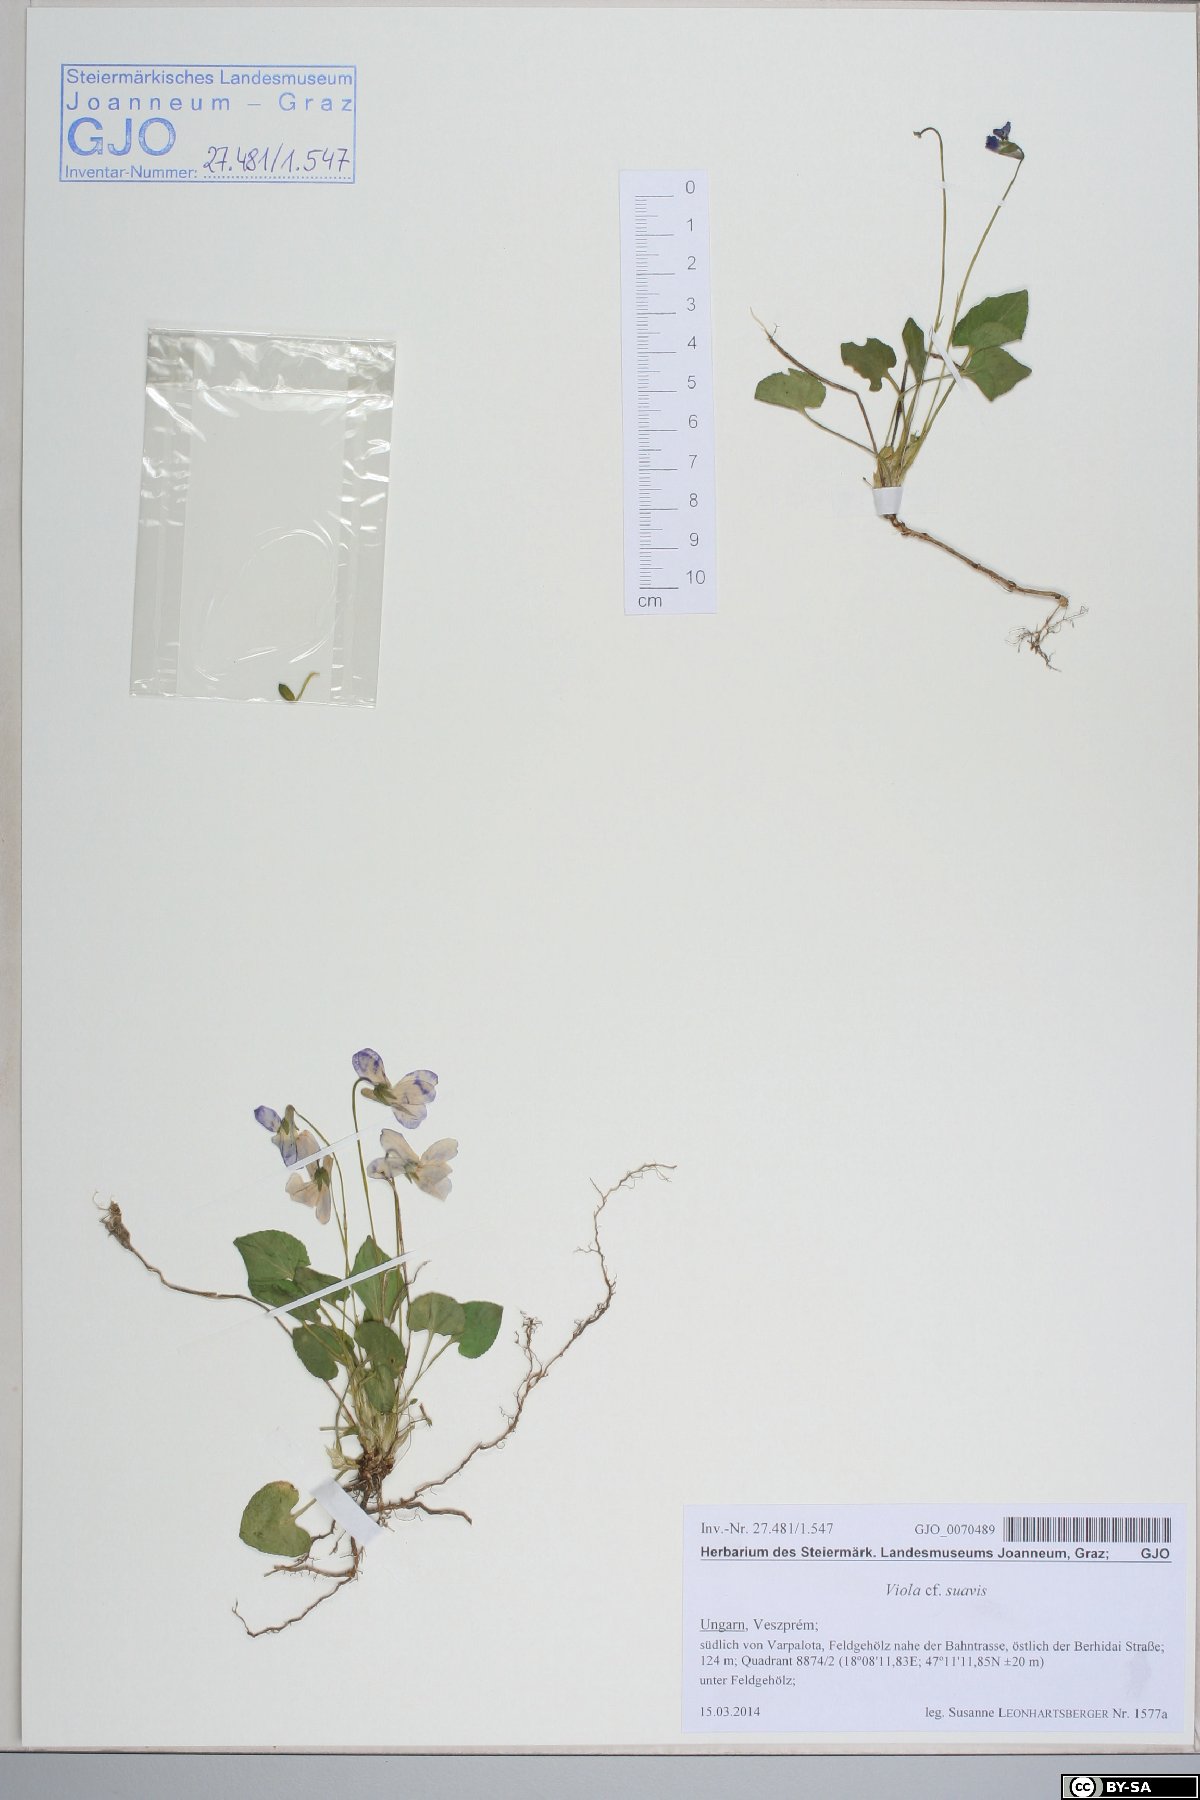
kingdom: Plantae
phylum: Tracheophyta
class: Magnoliopsida
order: Malpighiales
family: Violaceae
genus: Viola
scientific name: Viola suavis
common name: Russian violet
